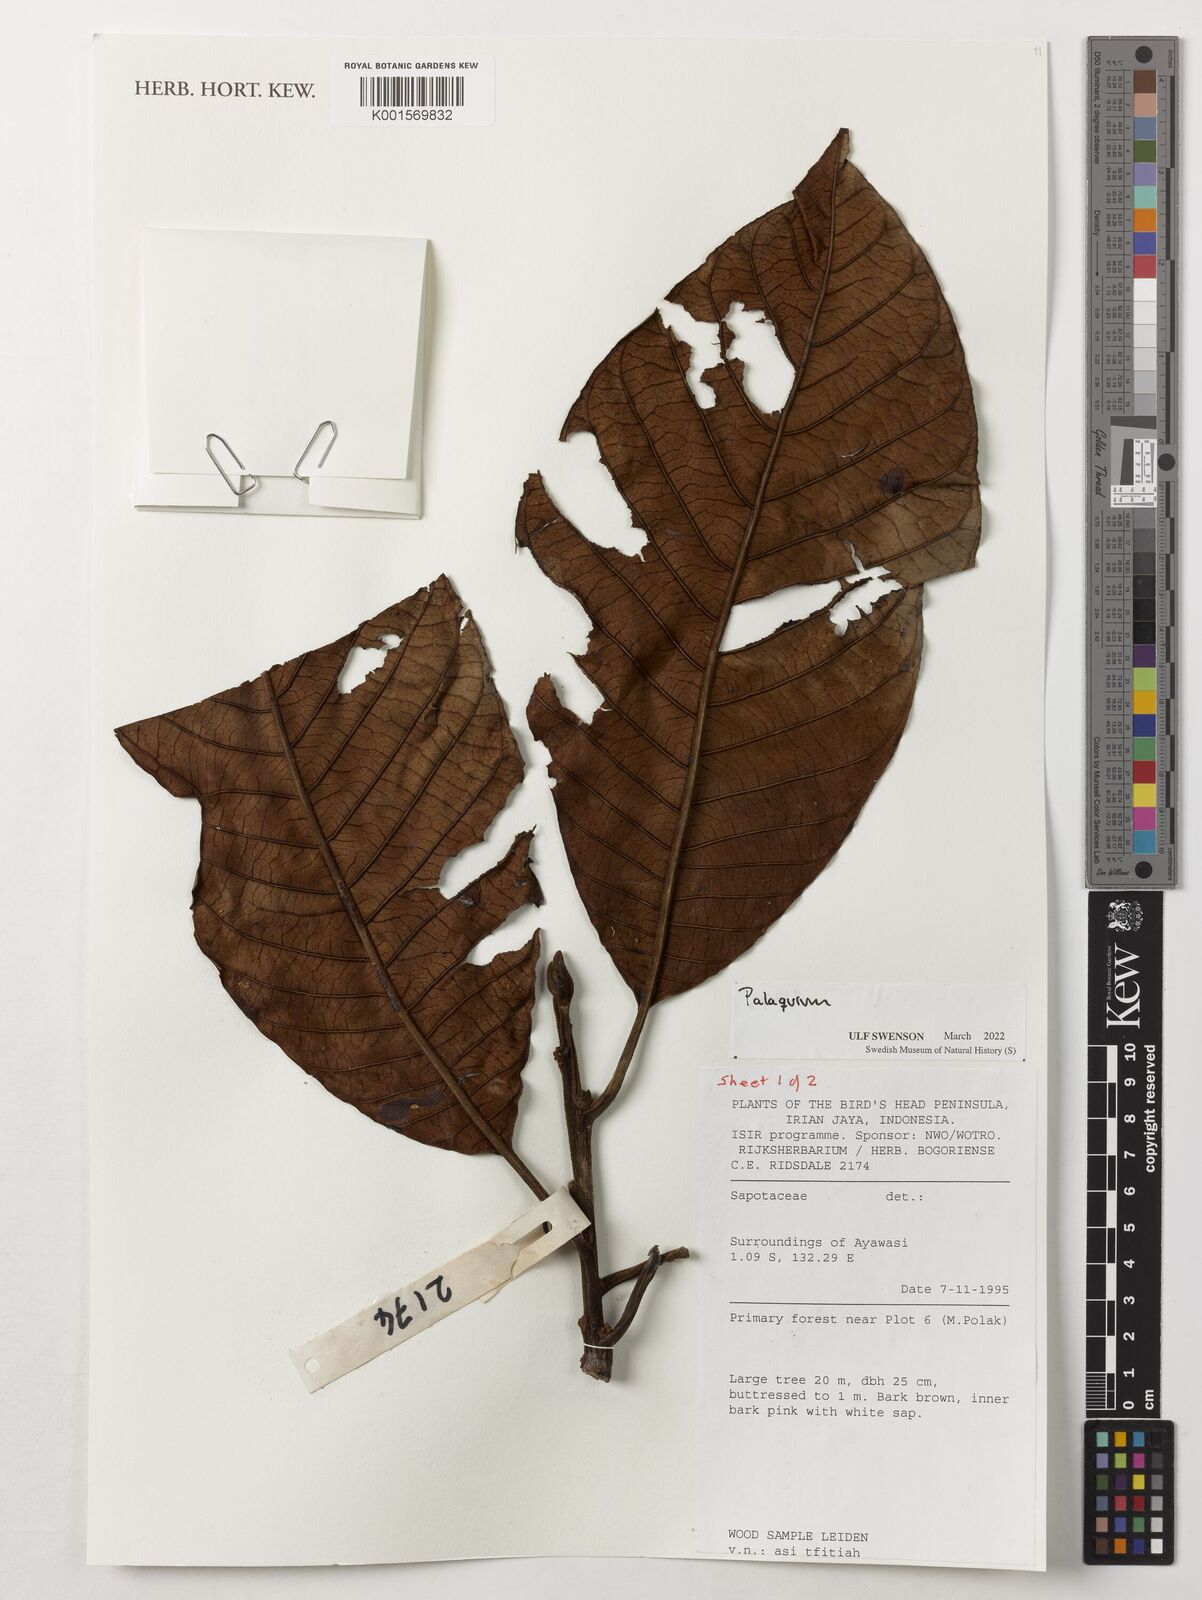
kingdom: Plantae
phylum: Tracheophyta
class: Magnoliopsida
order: Ericales
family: Sapotaceae
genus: Palaquium
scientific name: Palaquium
